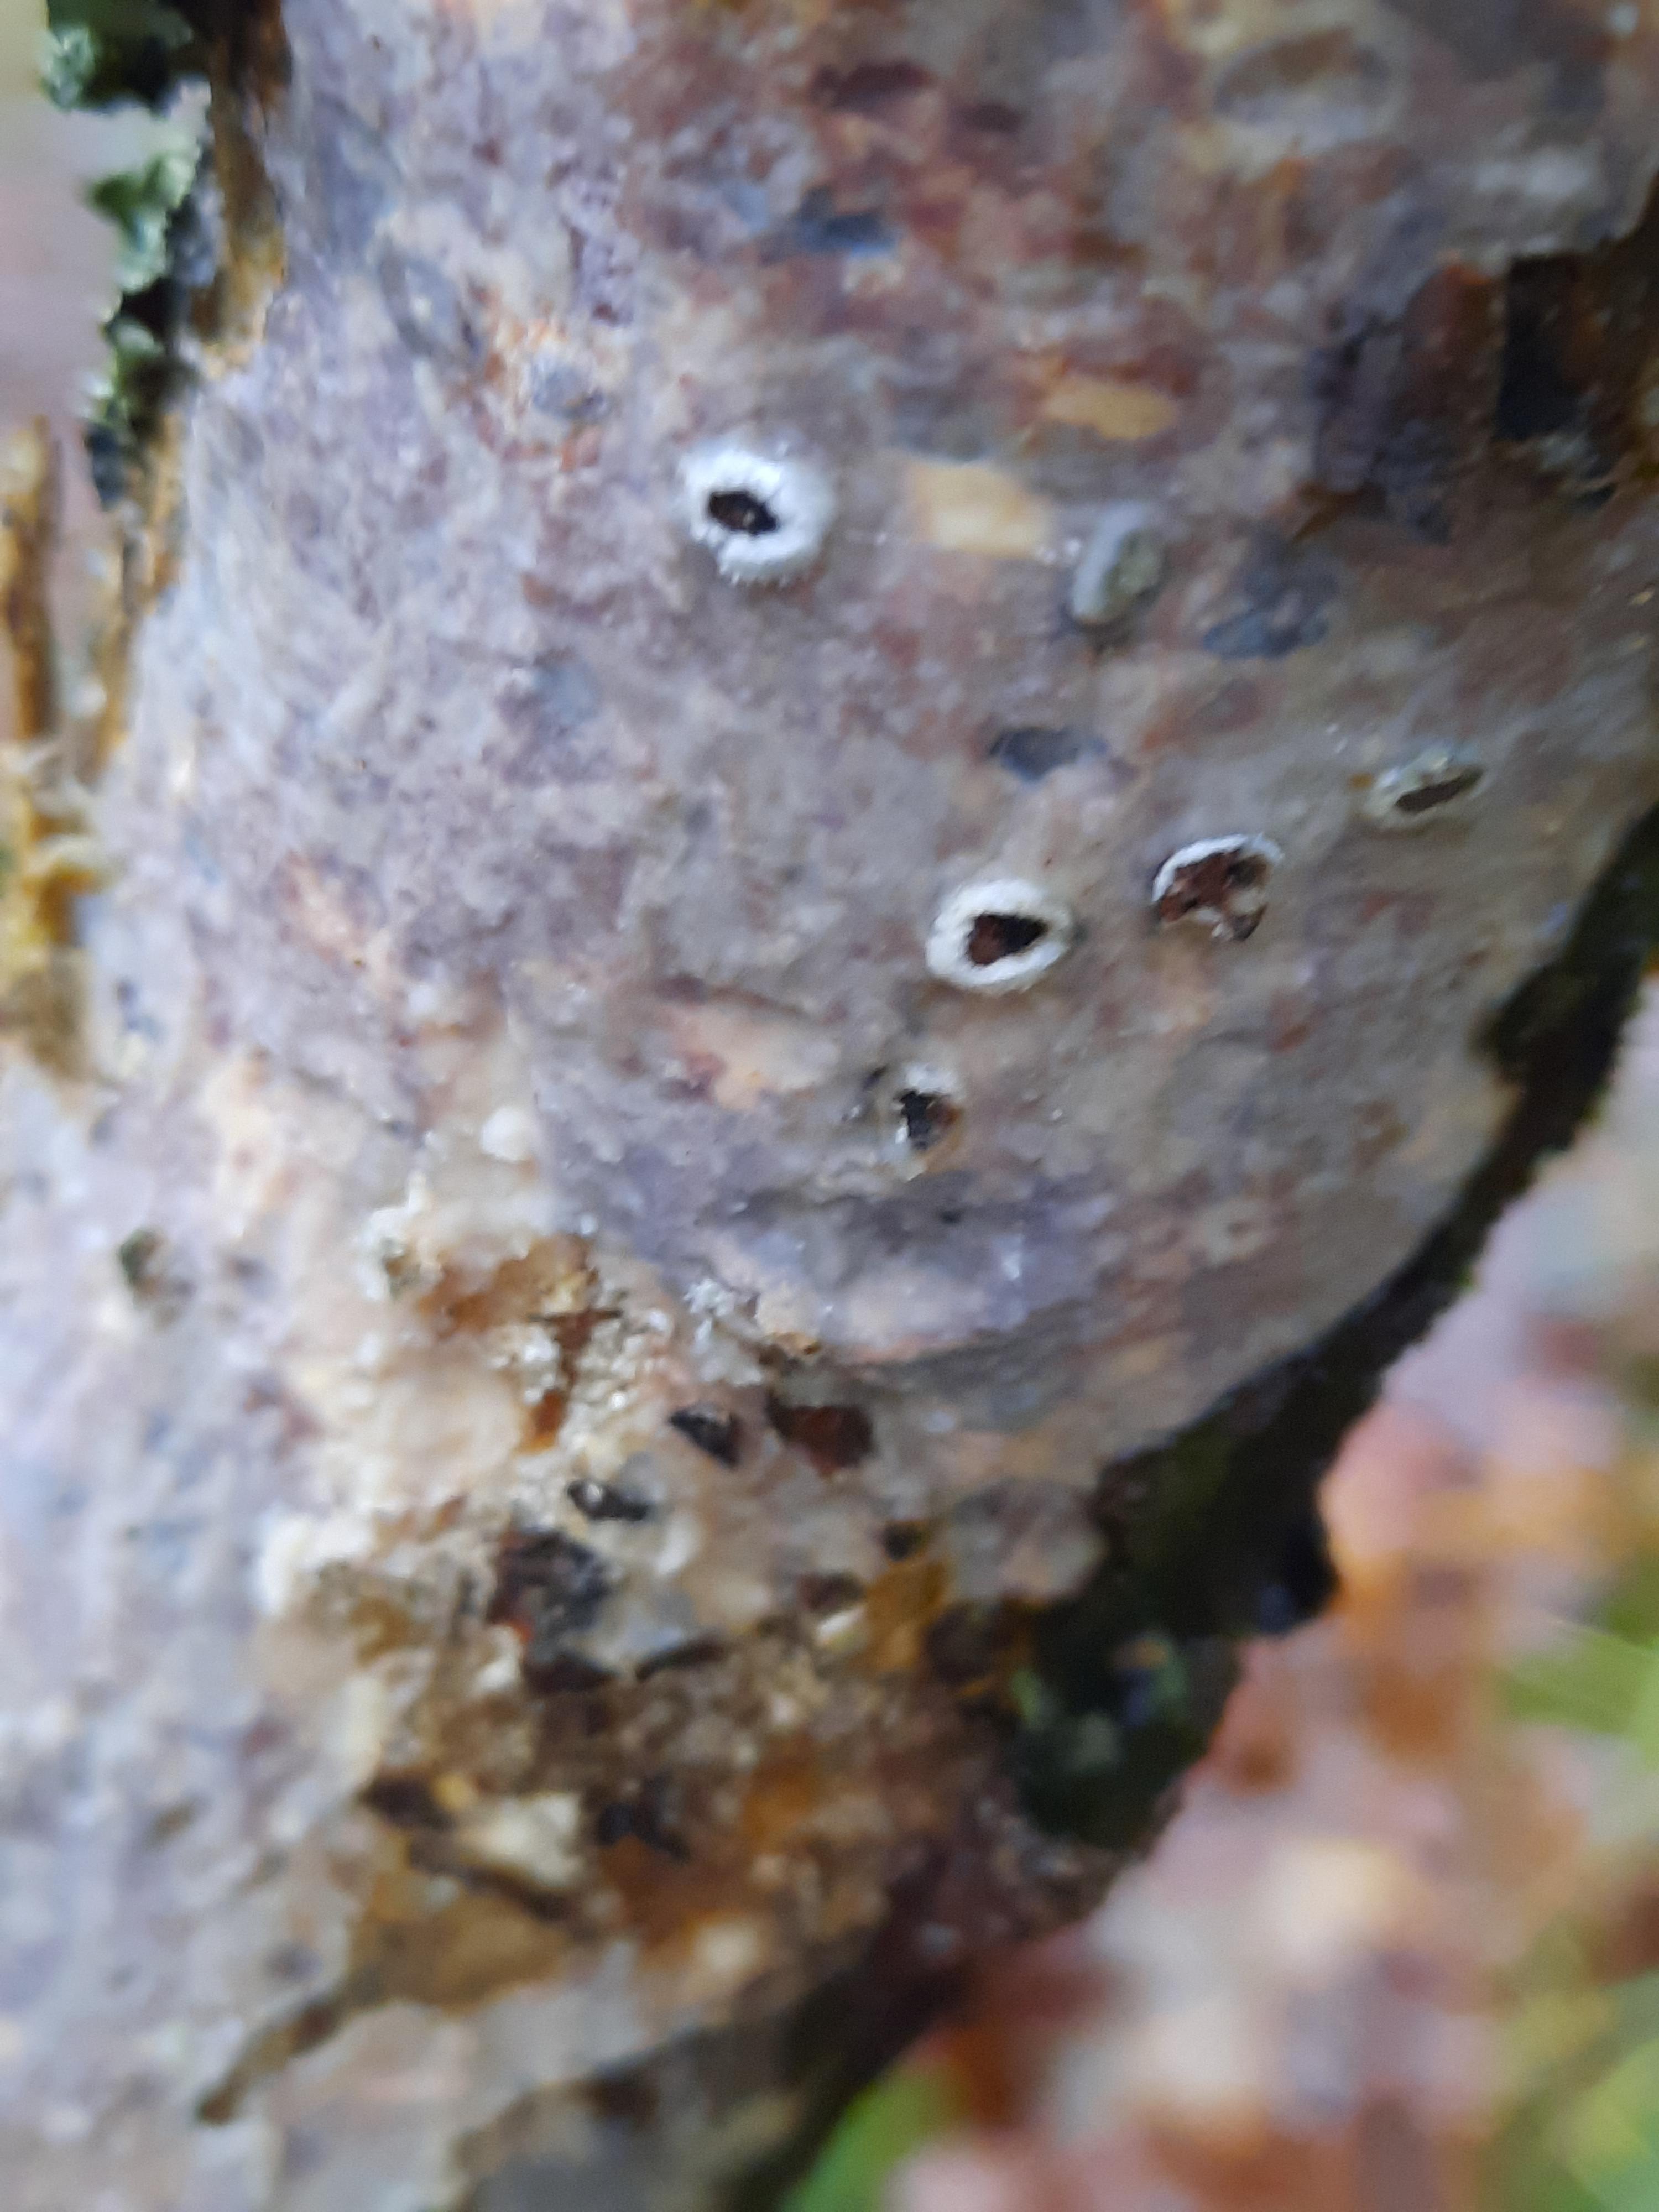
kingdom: Fungi
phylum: Basidiomycota
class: Agaricomycetes
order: Corticiales
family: Corticiaceae
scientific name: Corticiaceae
